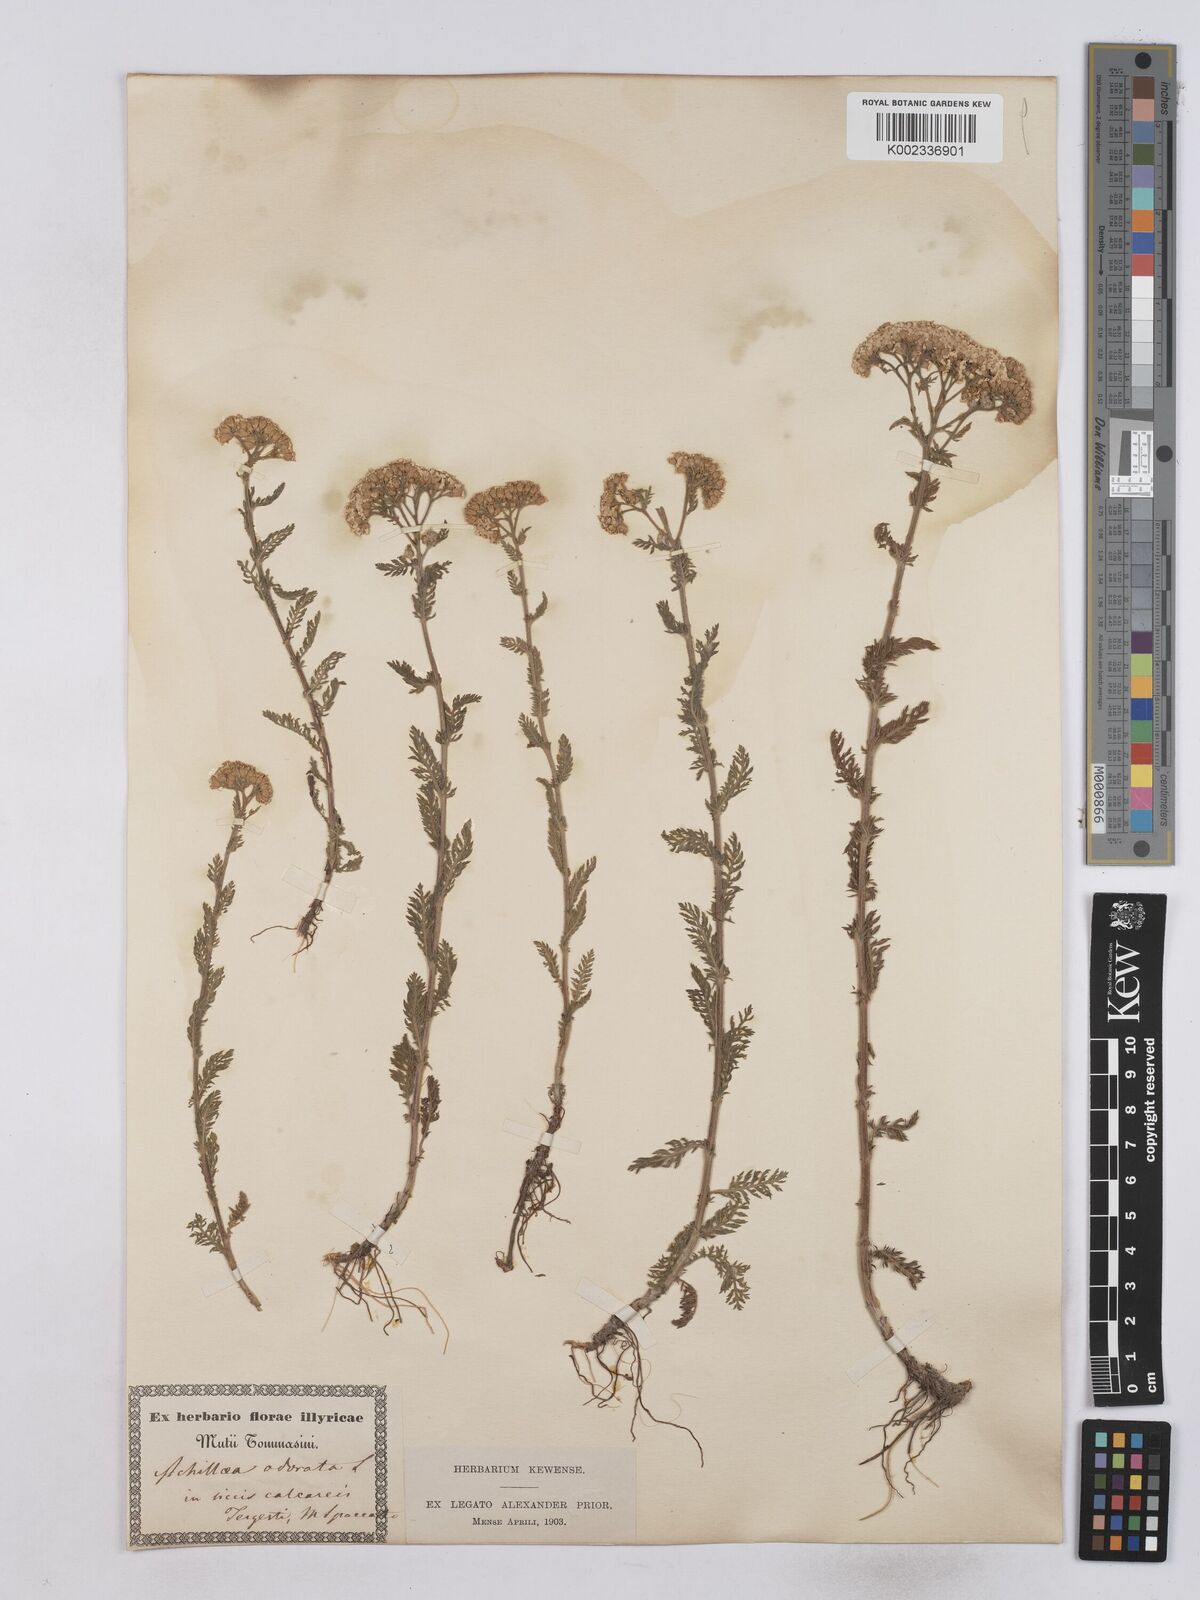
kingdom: Plantae
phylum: Tracheophyta
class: Magnoliopsida
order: Asterales
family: Asteraceae
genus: Achillea
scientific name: Achillea odorata
